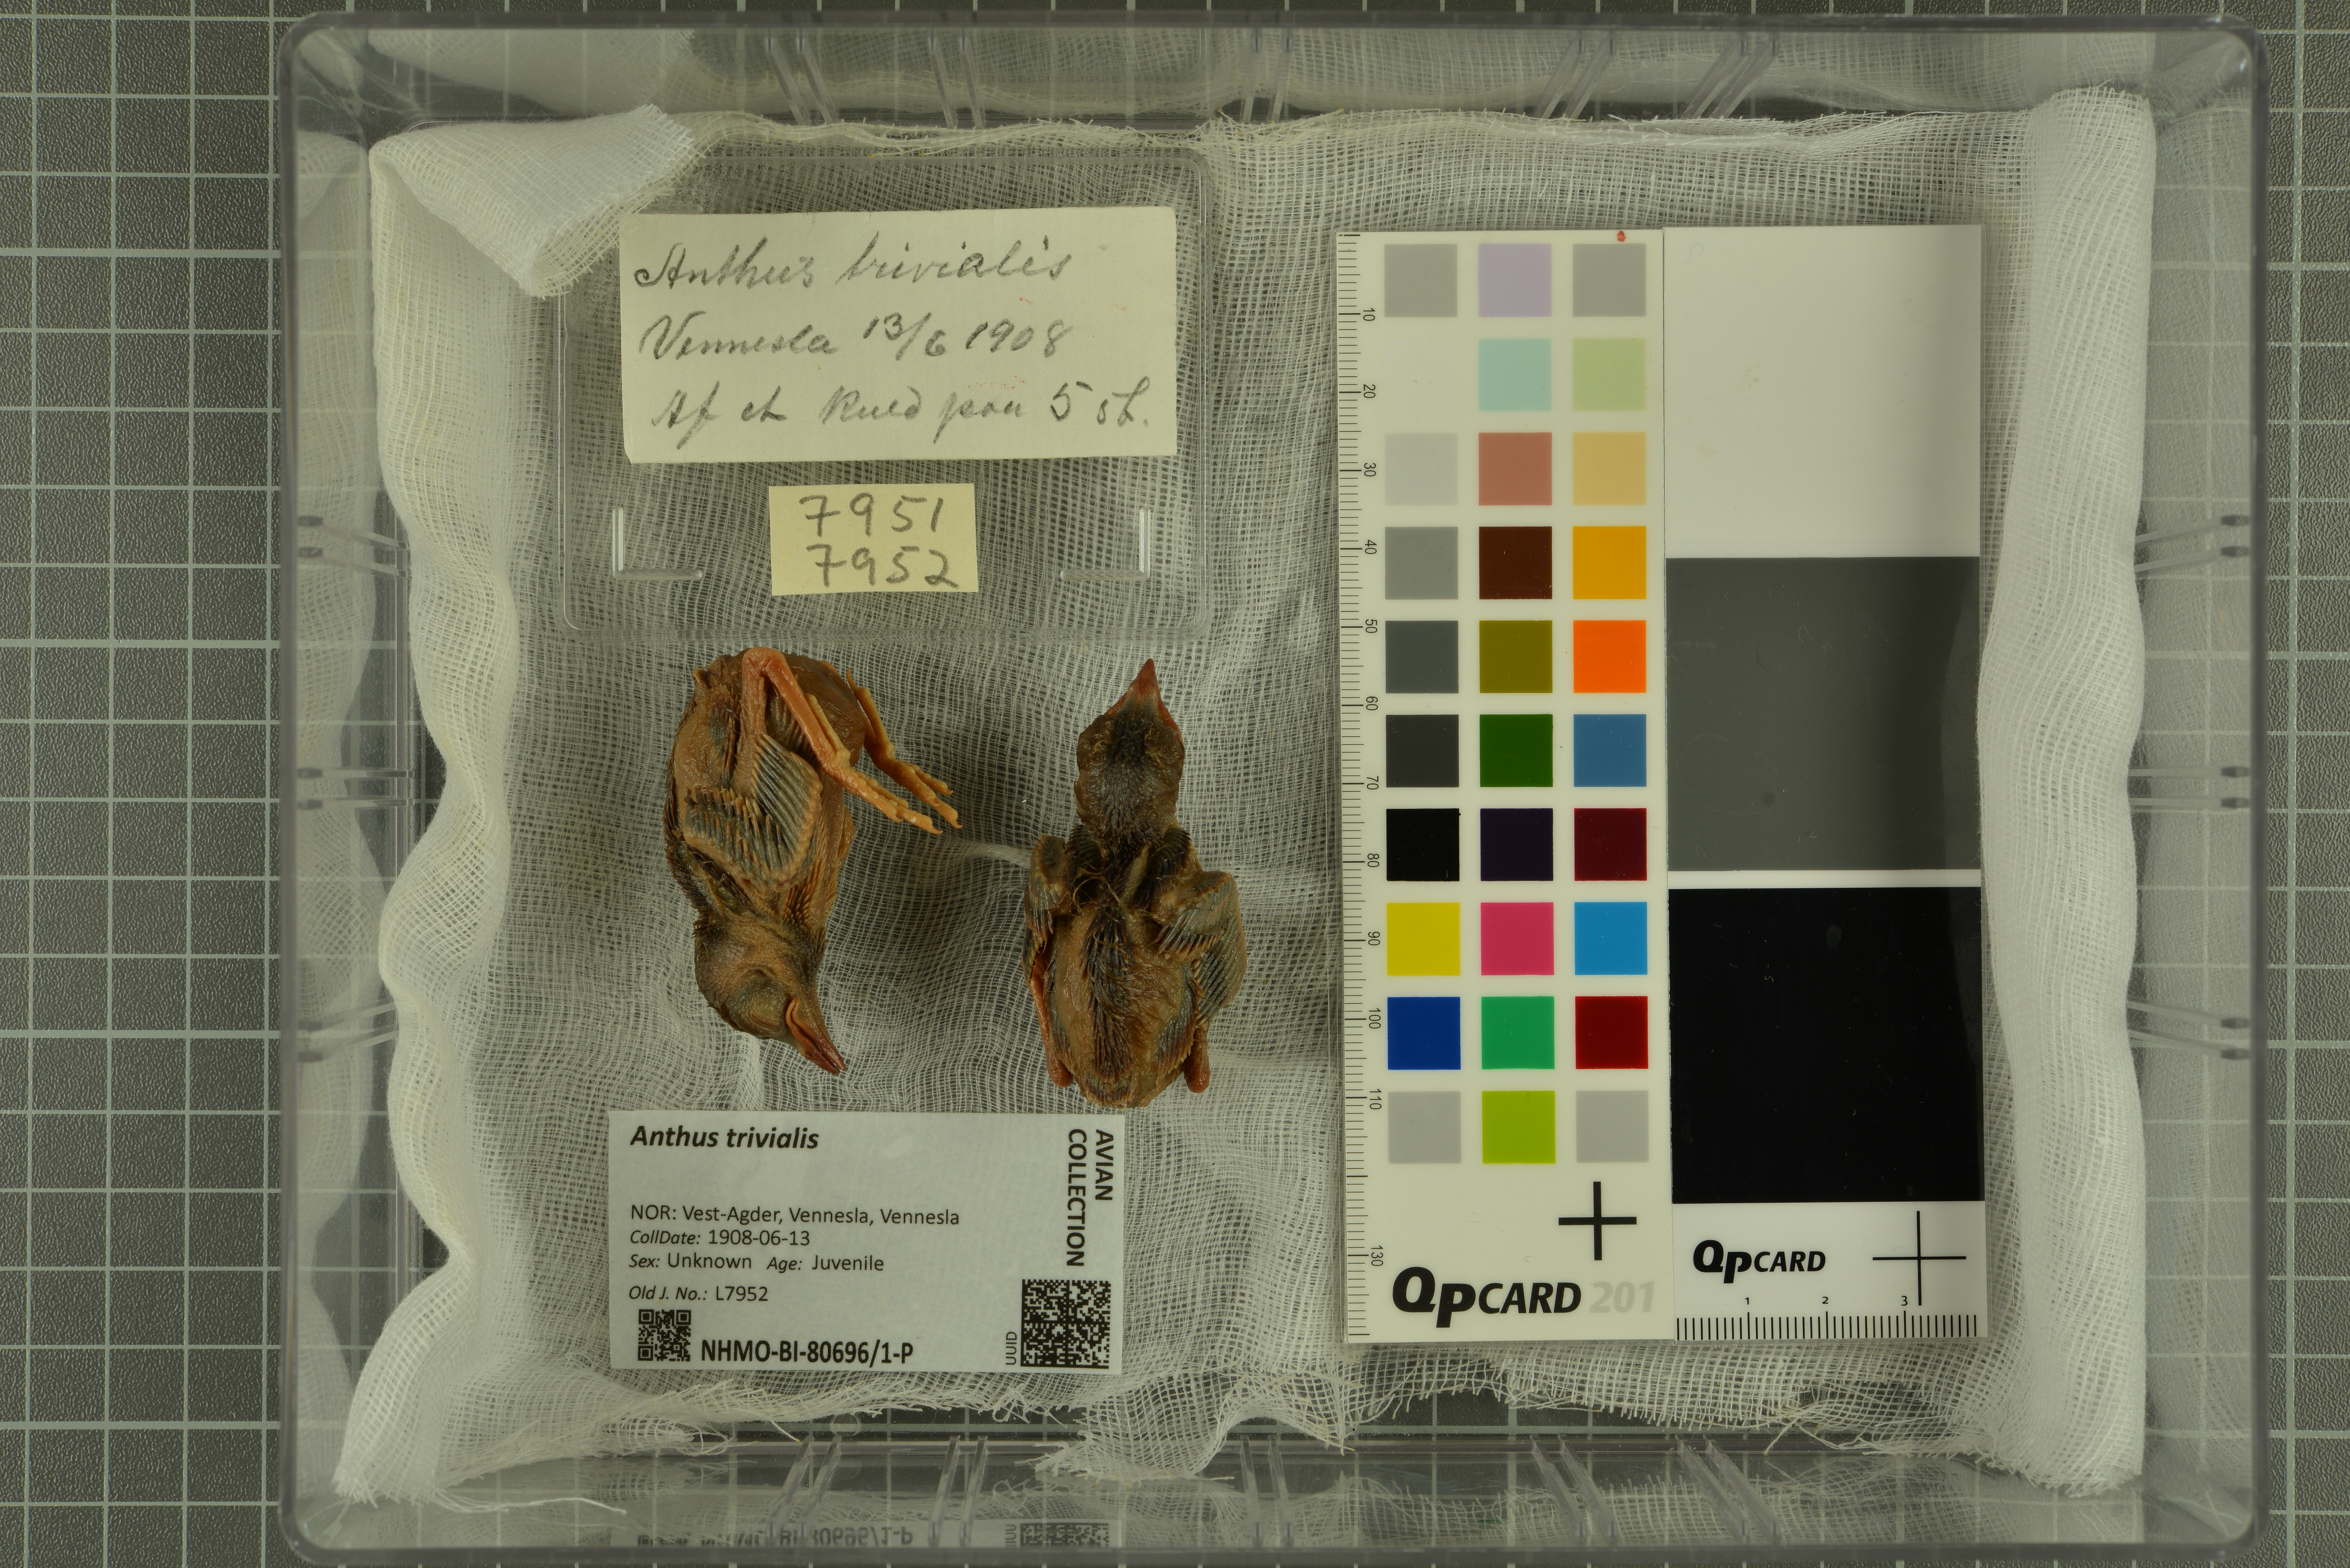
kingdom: Animalia
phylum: Chordata
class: Aves
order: Passeriformes
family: Motacillidae
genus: Anthus
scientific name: Anthus trivialis
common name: Tree pipit
